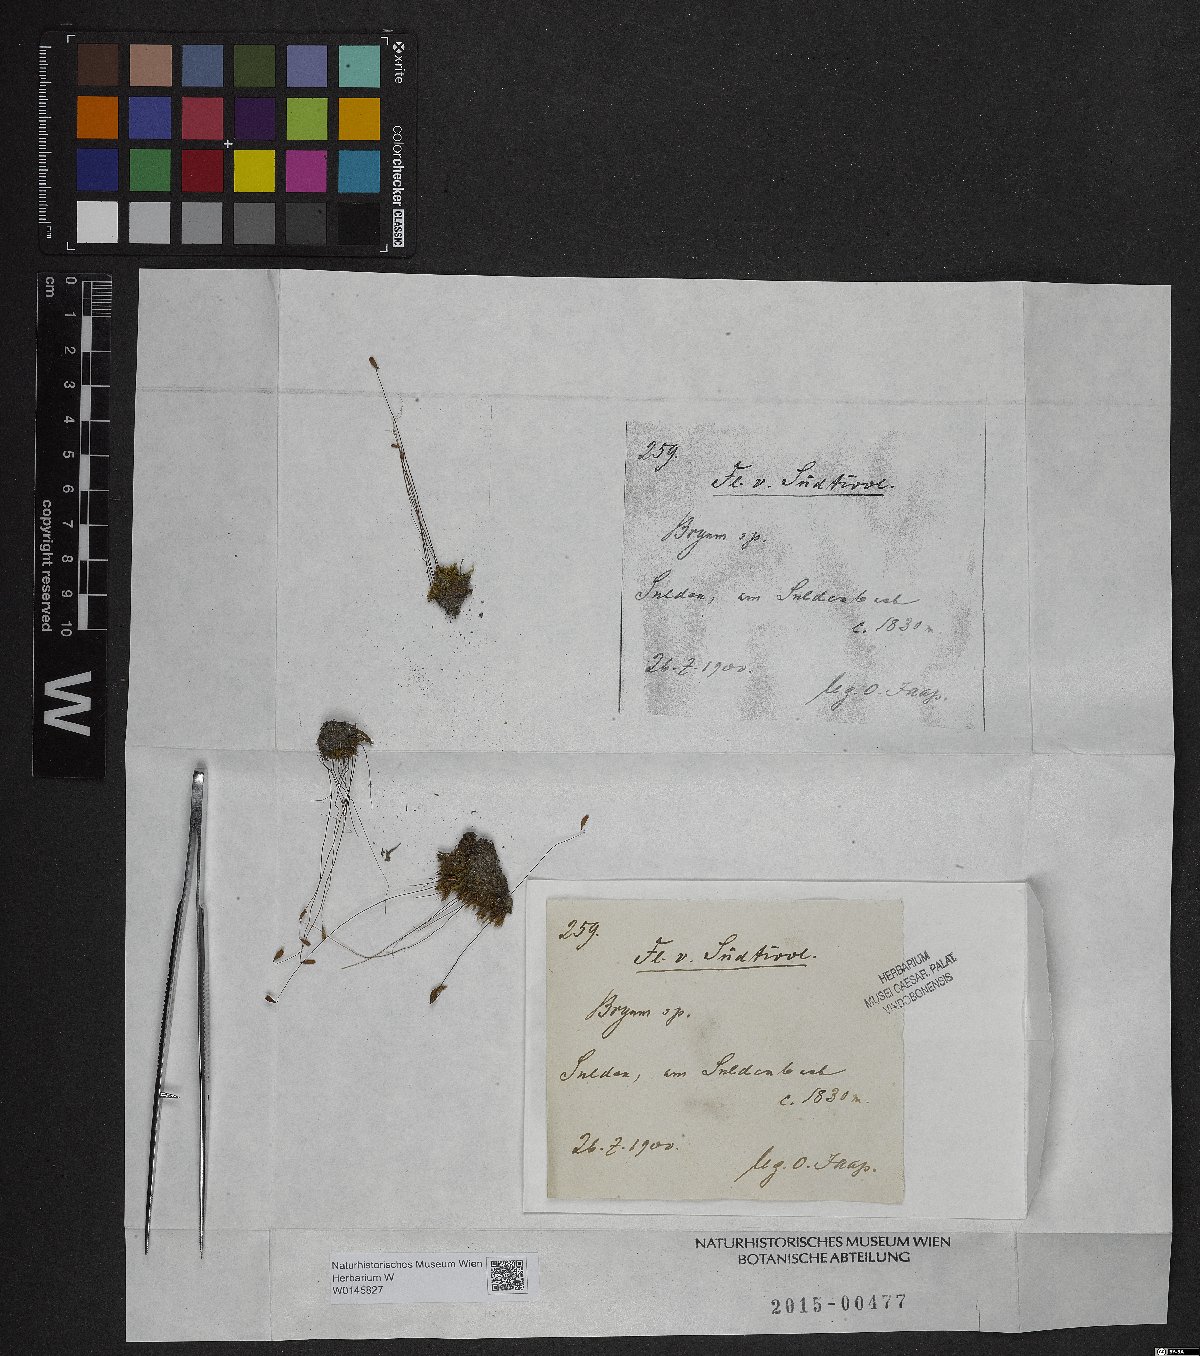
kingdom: Plantae
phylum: Bryophyta
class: Bryopsida
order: Bryales
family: Bryaceae
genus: Bryum
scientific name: Bryum
